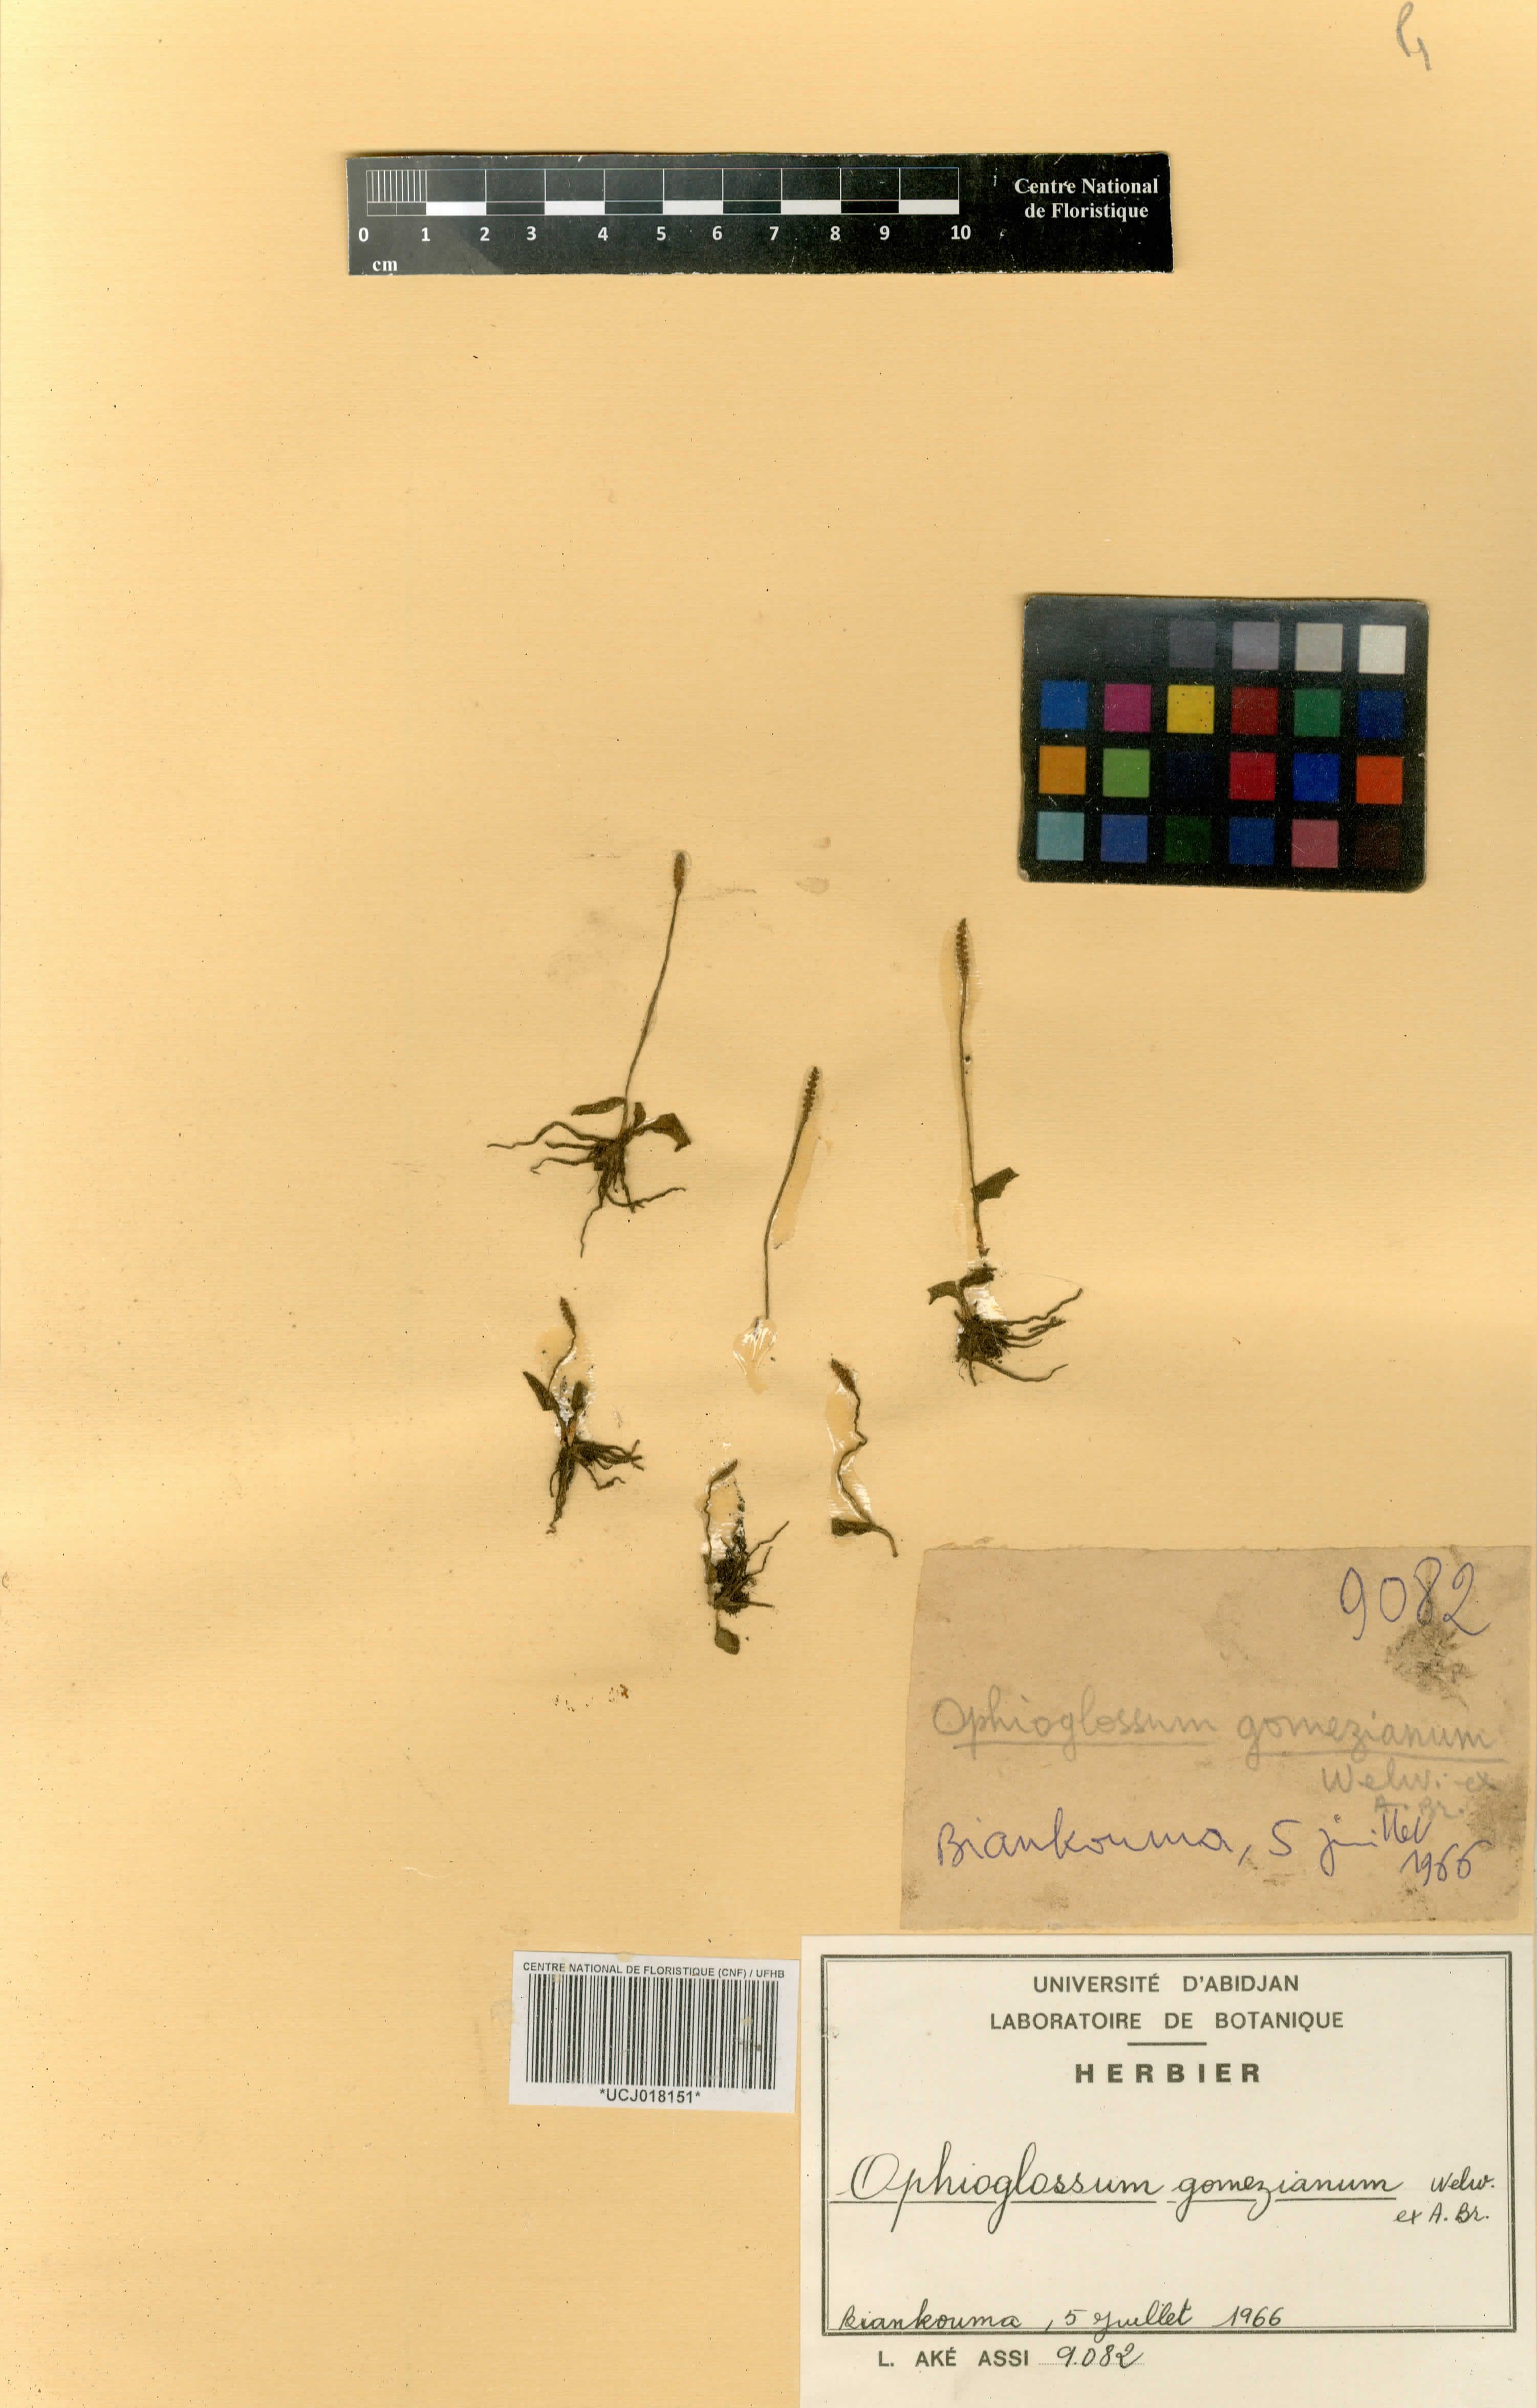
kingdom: Plantae
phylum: Tracheophyta
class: Polypodiopsida
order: Ophioglossales
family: Ophioglossaceae
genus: Ophioglossum
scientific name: Ophioglossum gomezianum
